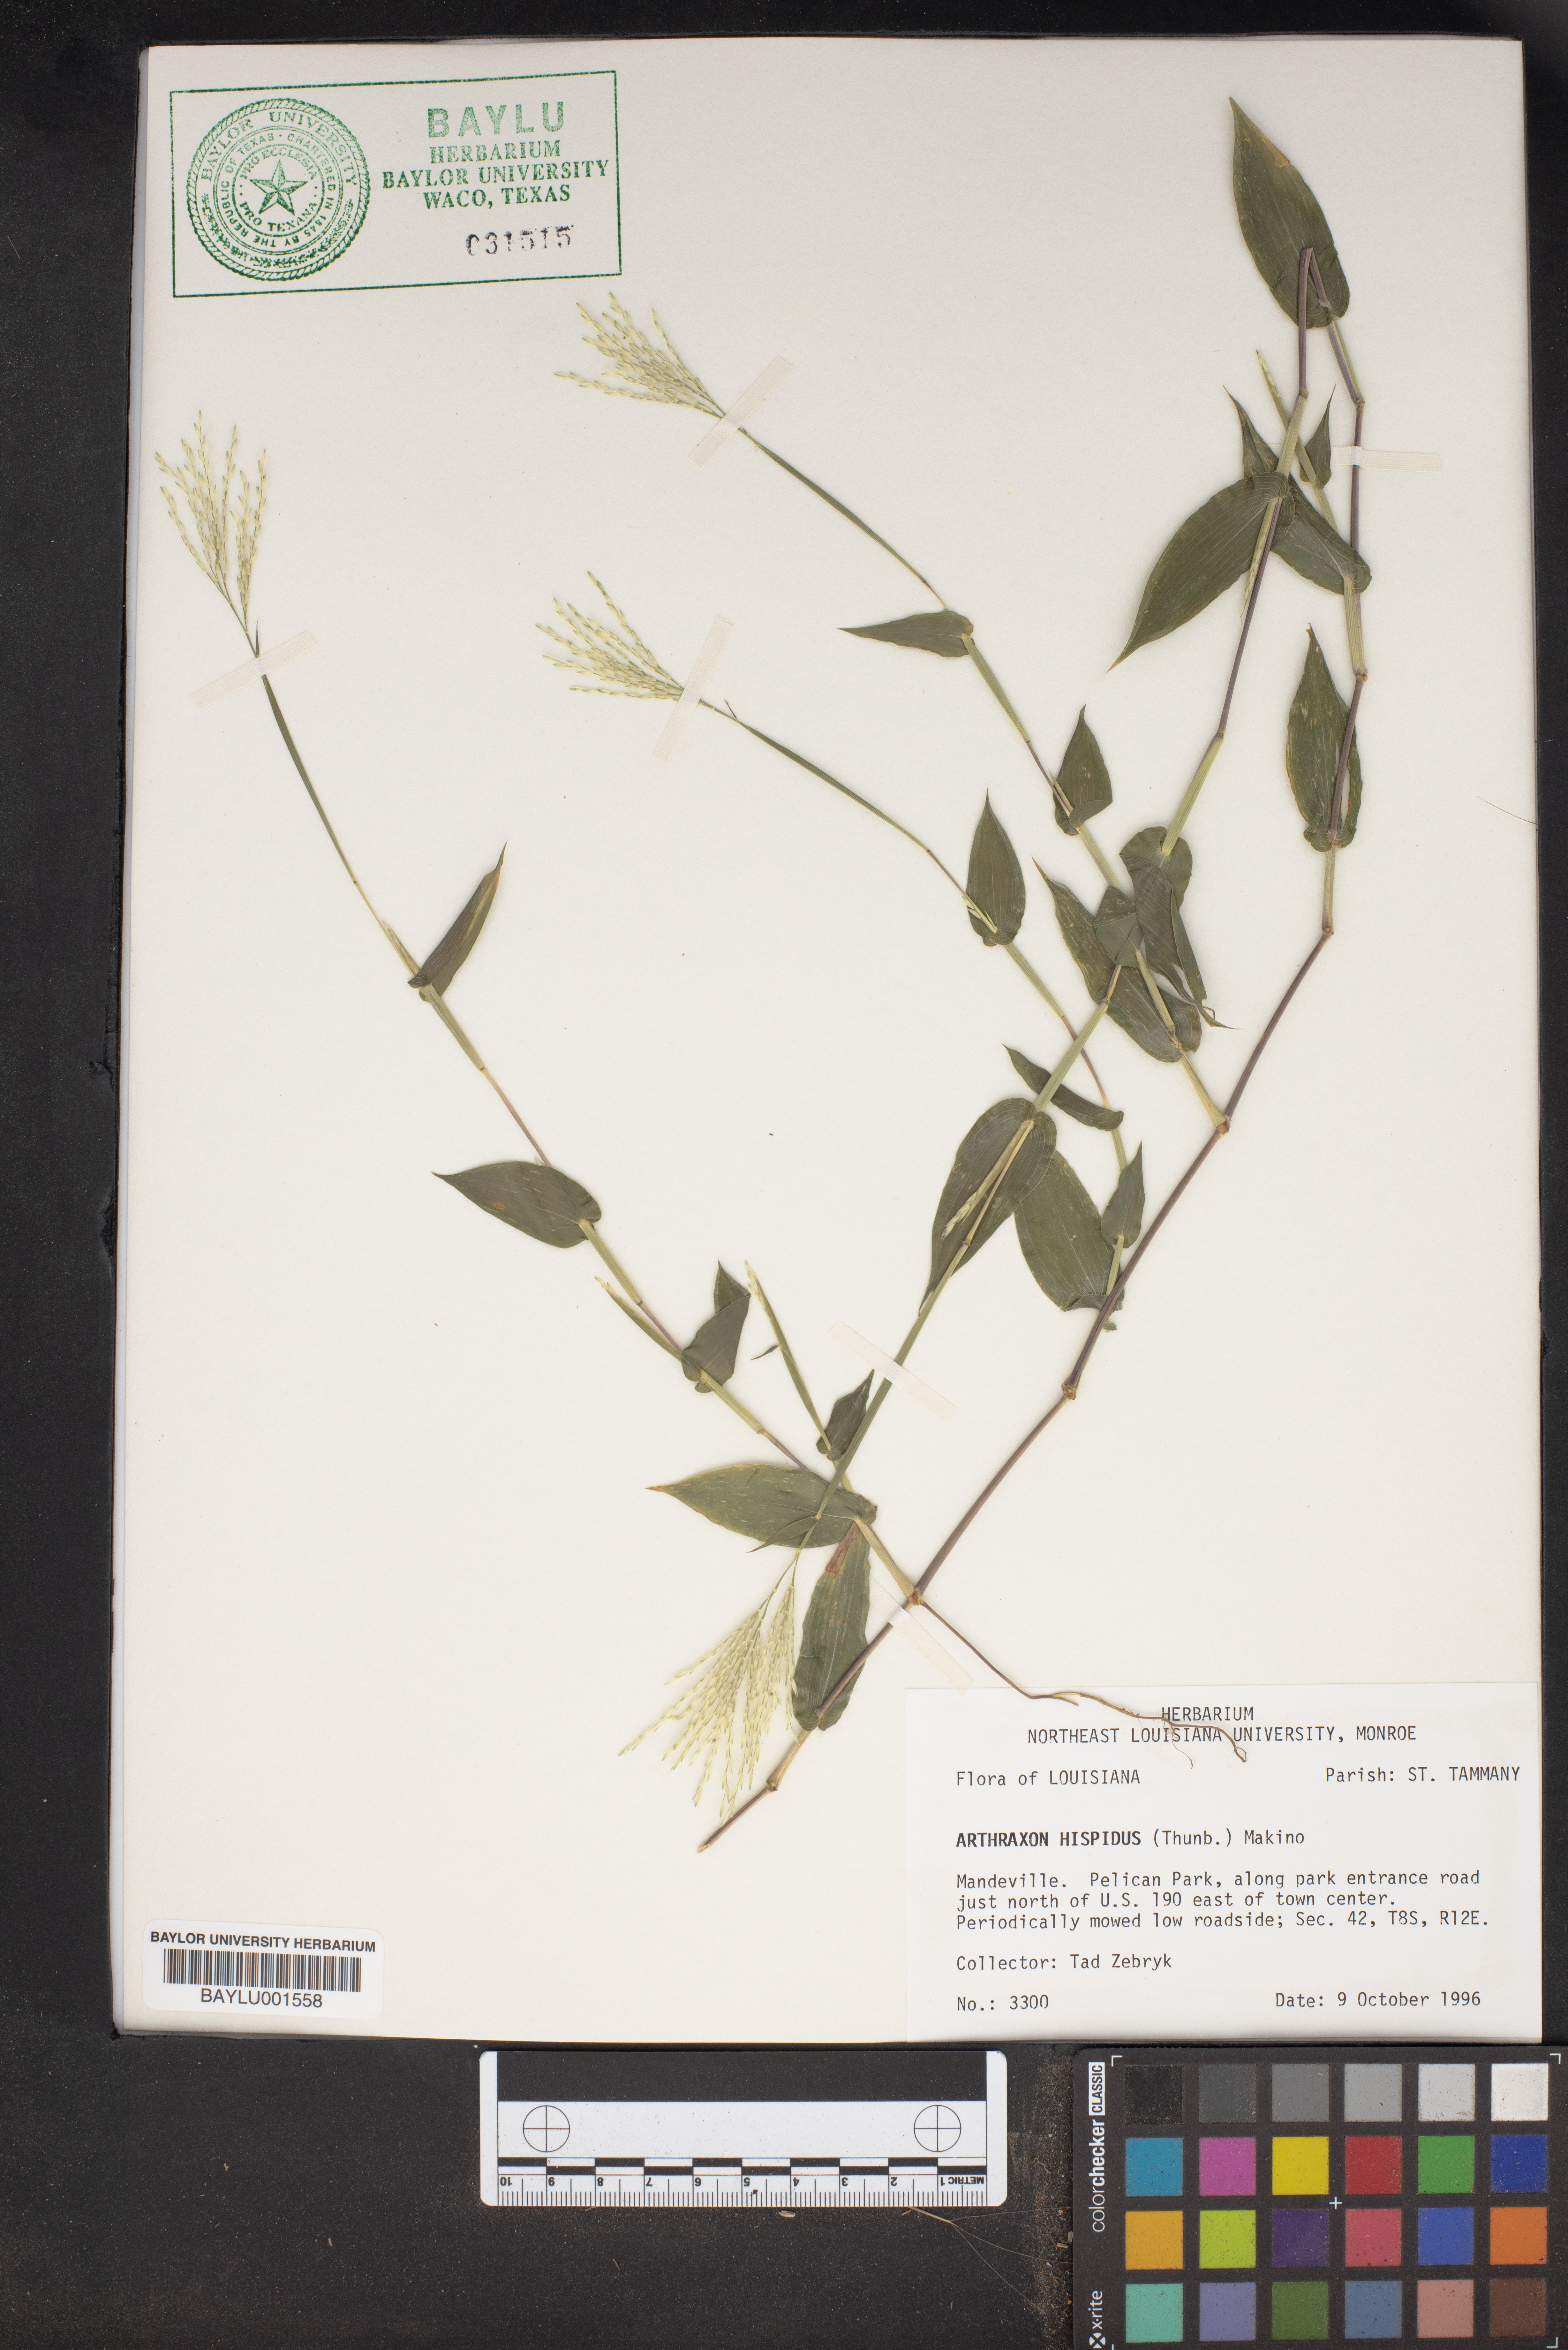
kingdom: Plantae
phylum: Tracheophyta
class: Liliopsida
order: Poales
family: Poaceae
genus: Arthraxon
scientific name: Arthraxon hispidus
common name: Small carpgrass
